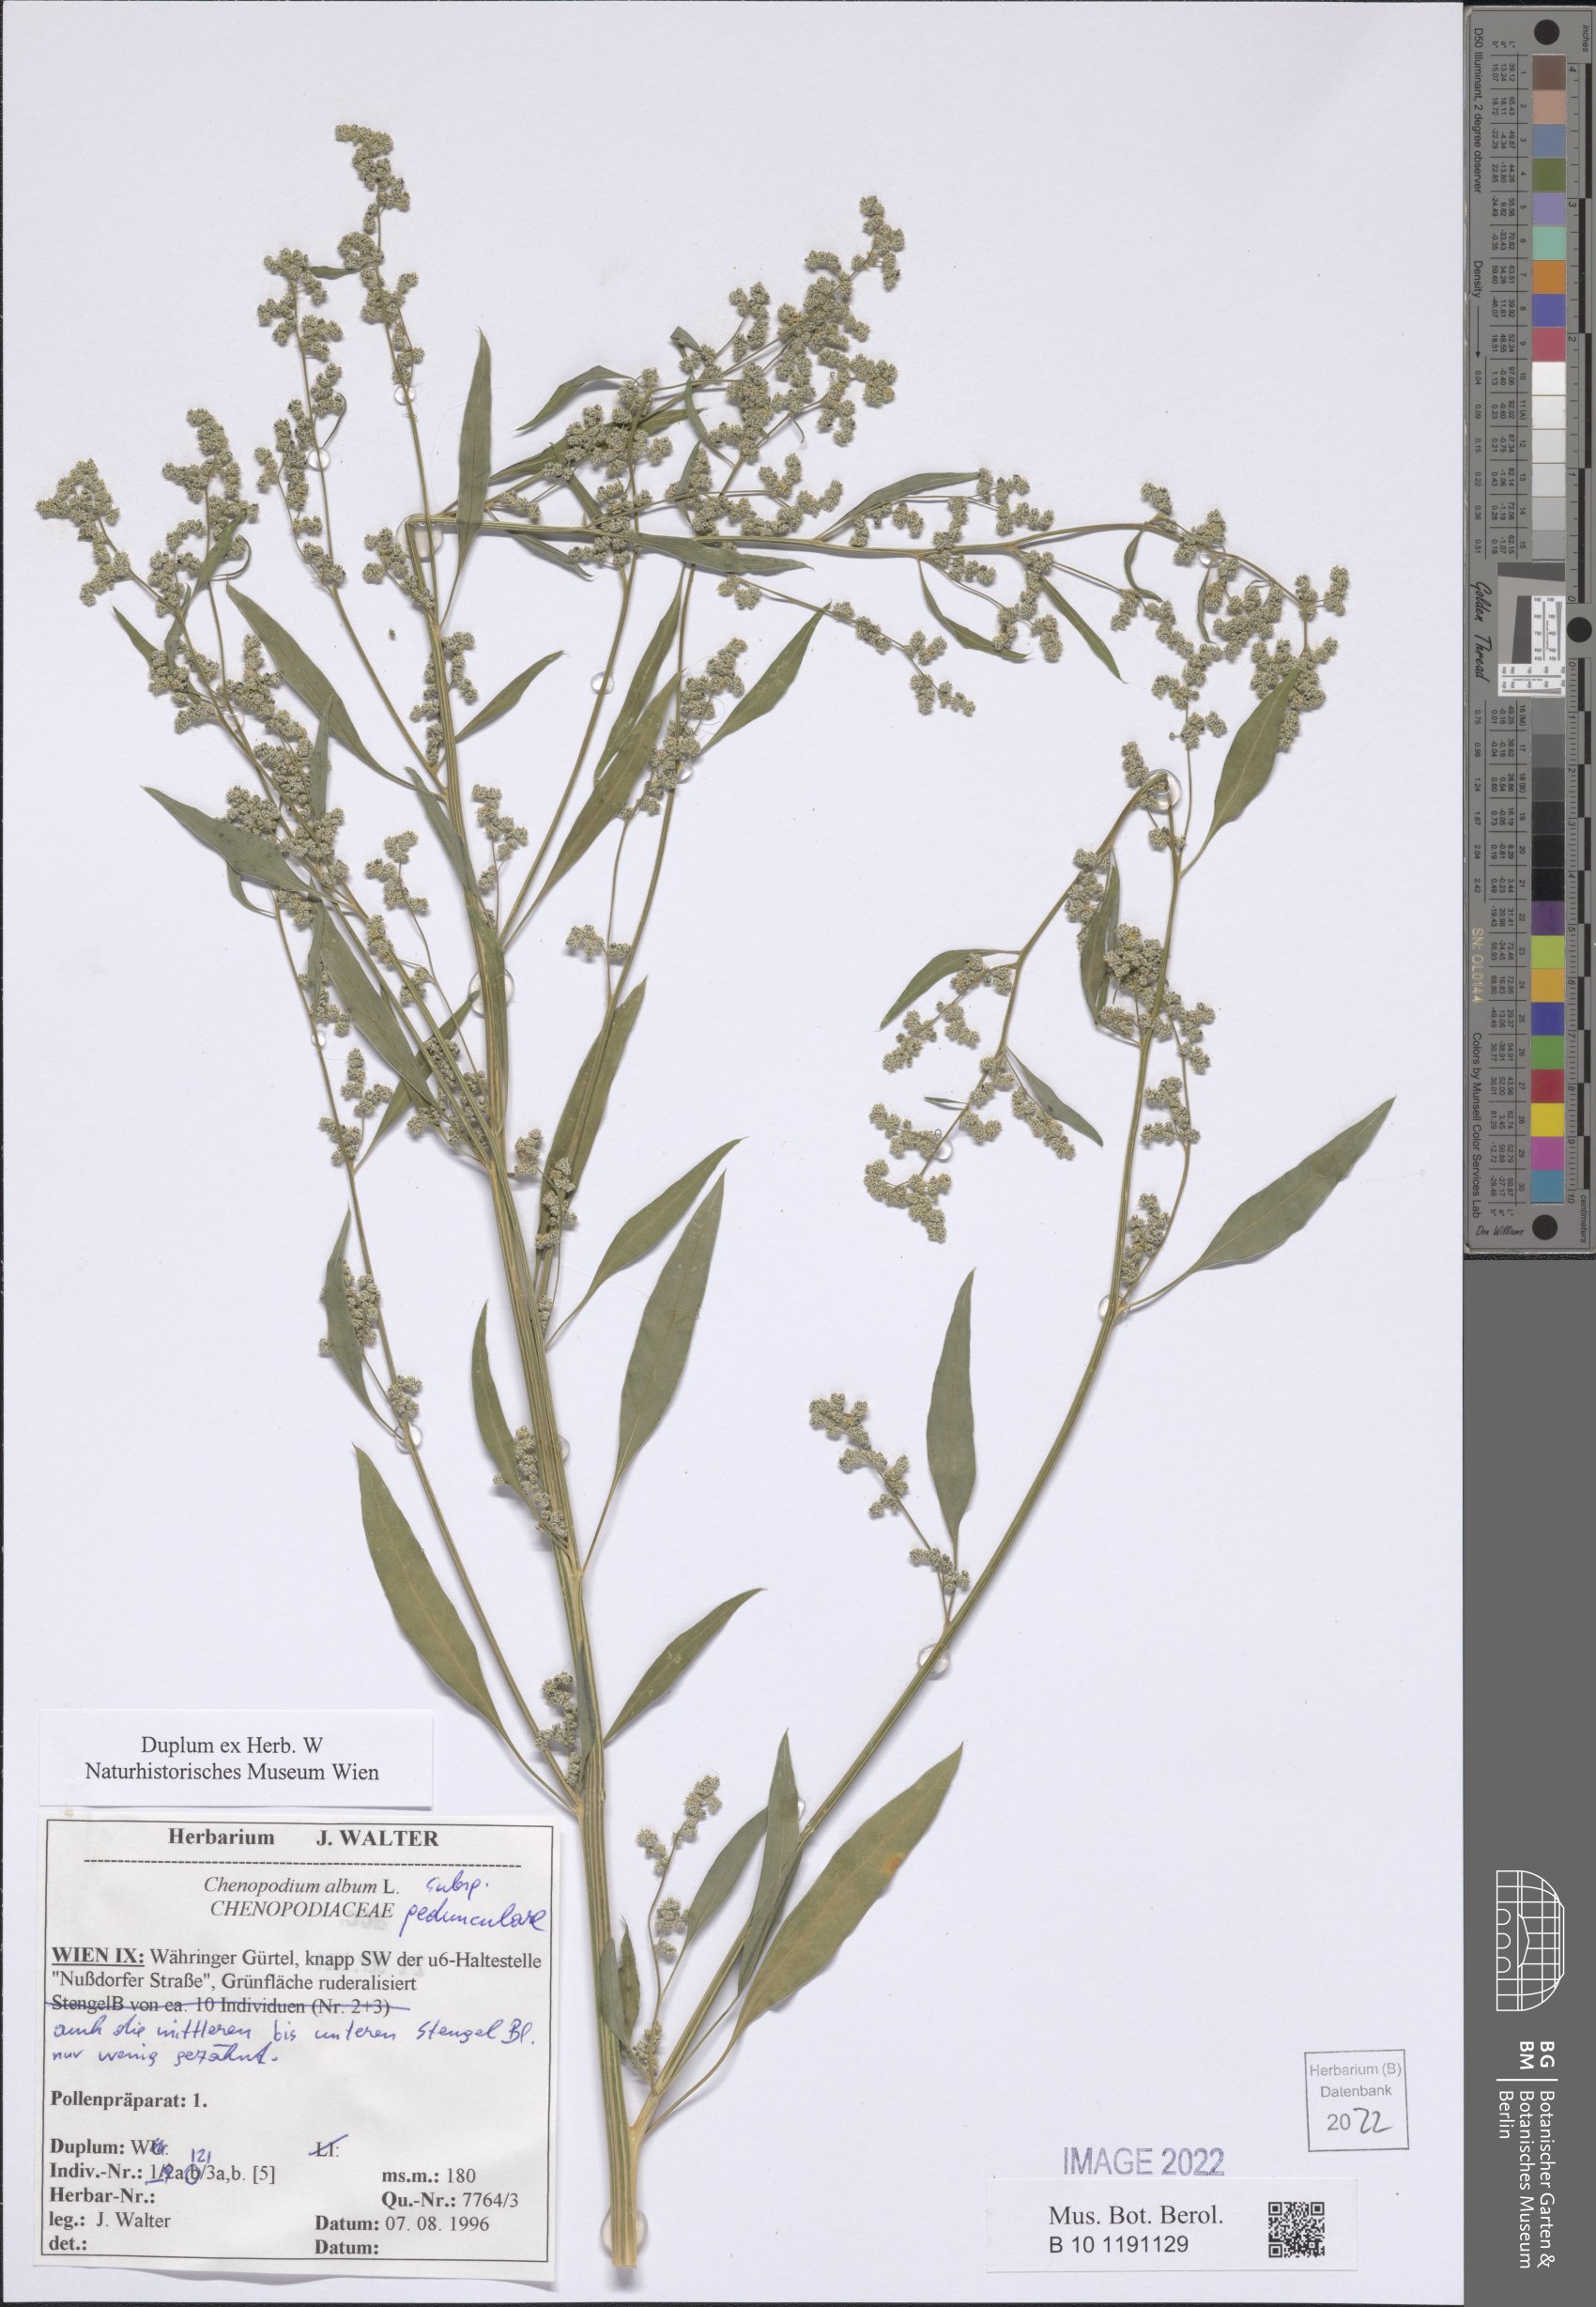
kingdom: Plantae
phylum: Tracheophyta
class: Magnoliopsida
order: Caryophyllales
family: Amaranthaceae
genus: Chenopodium
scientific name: Chenopodium album
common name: Fat-hen
